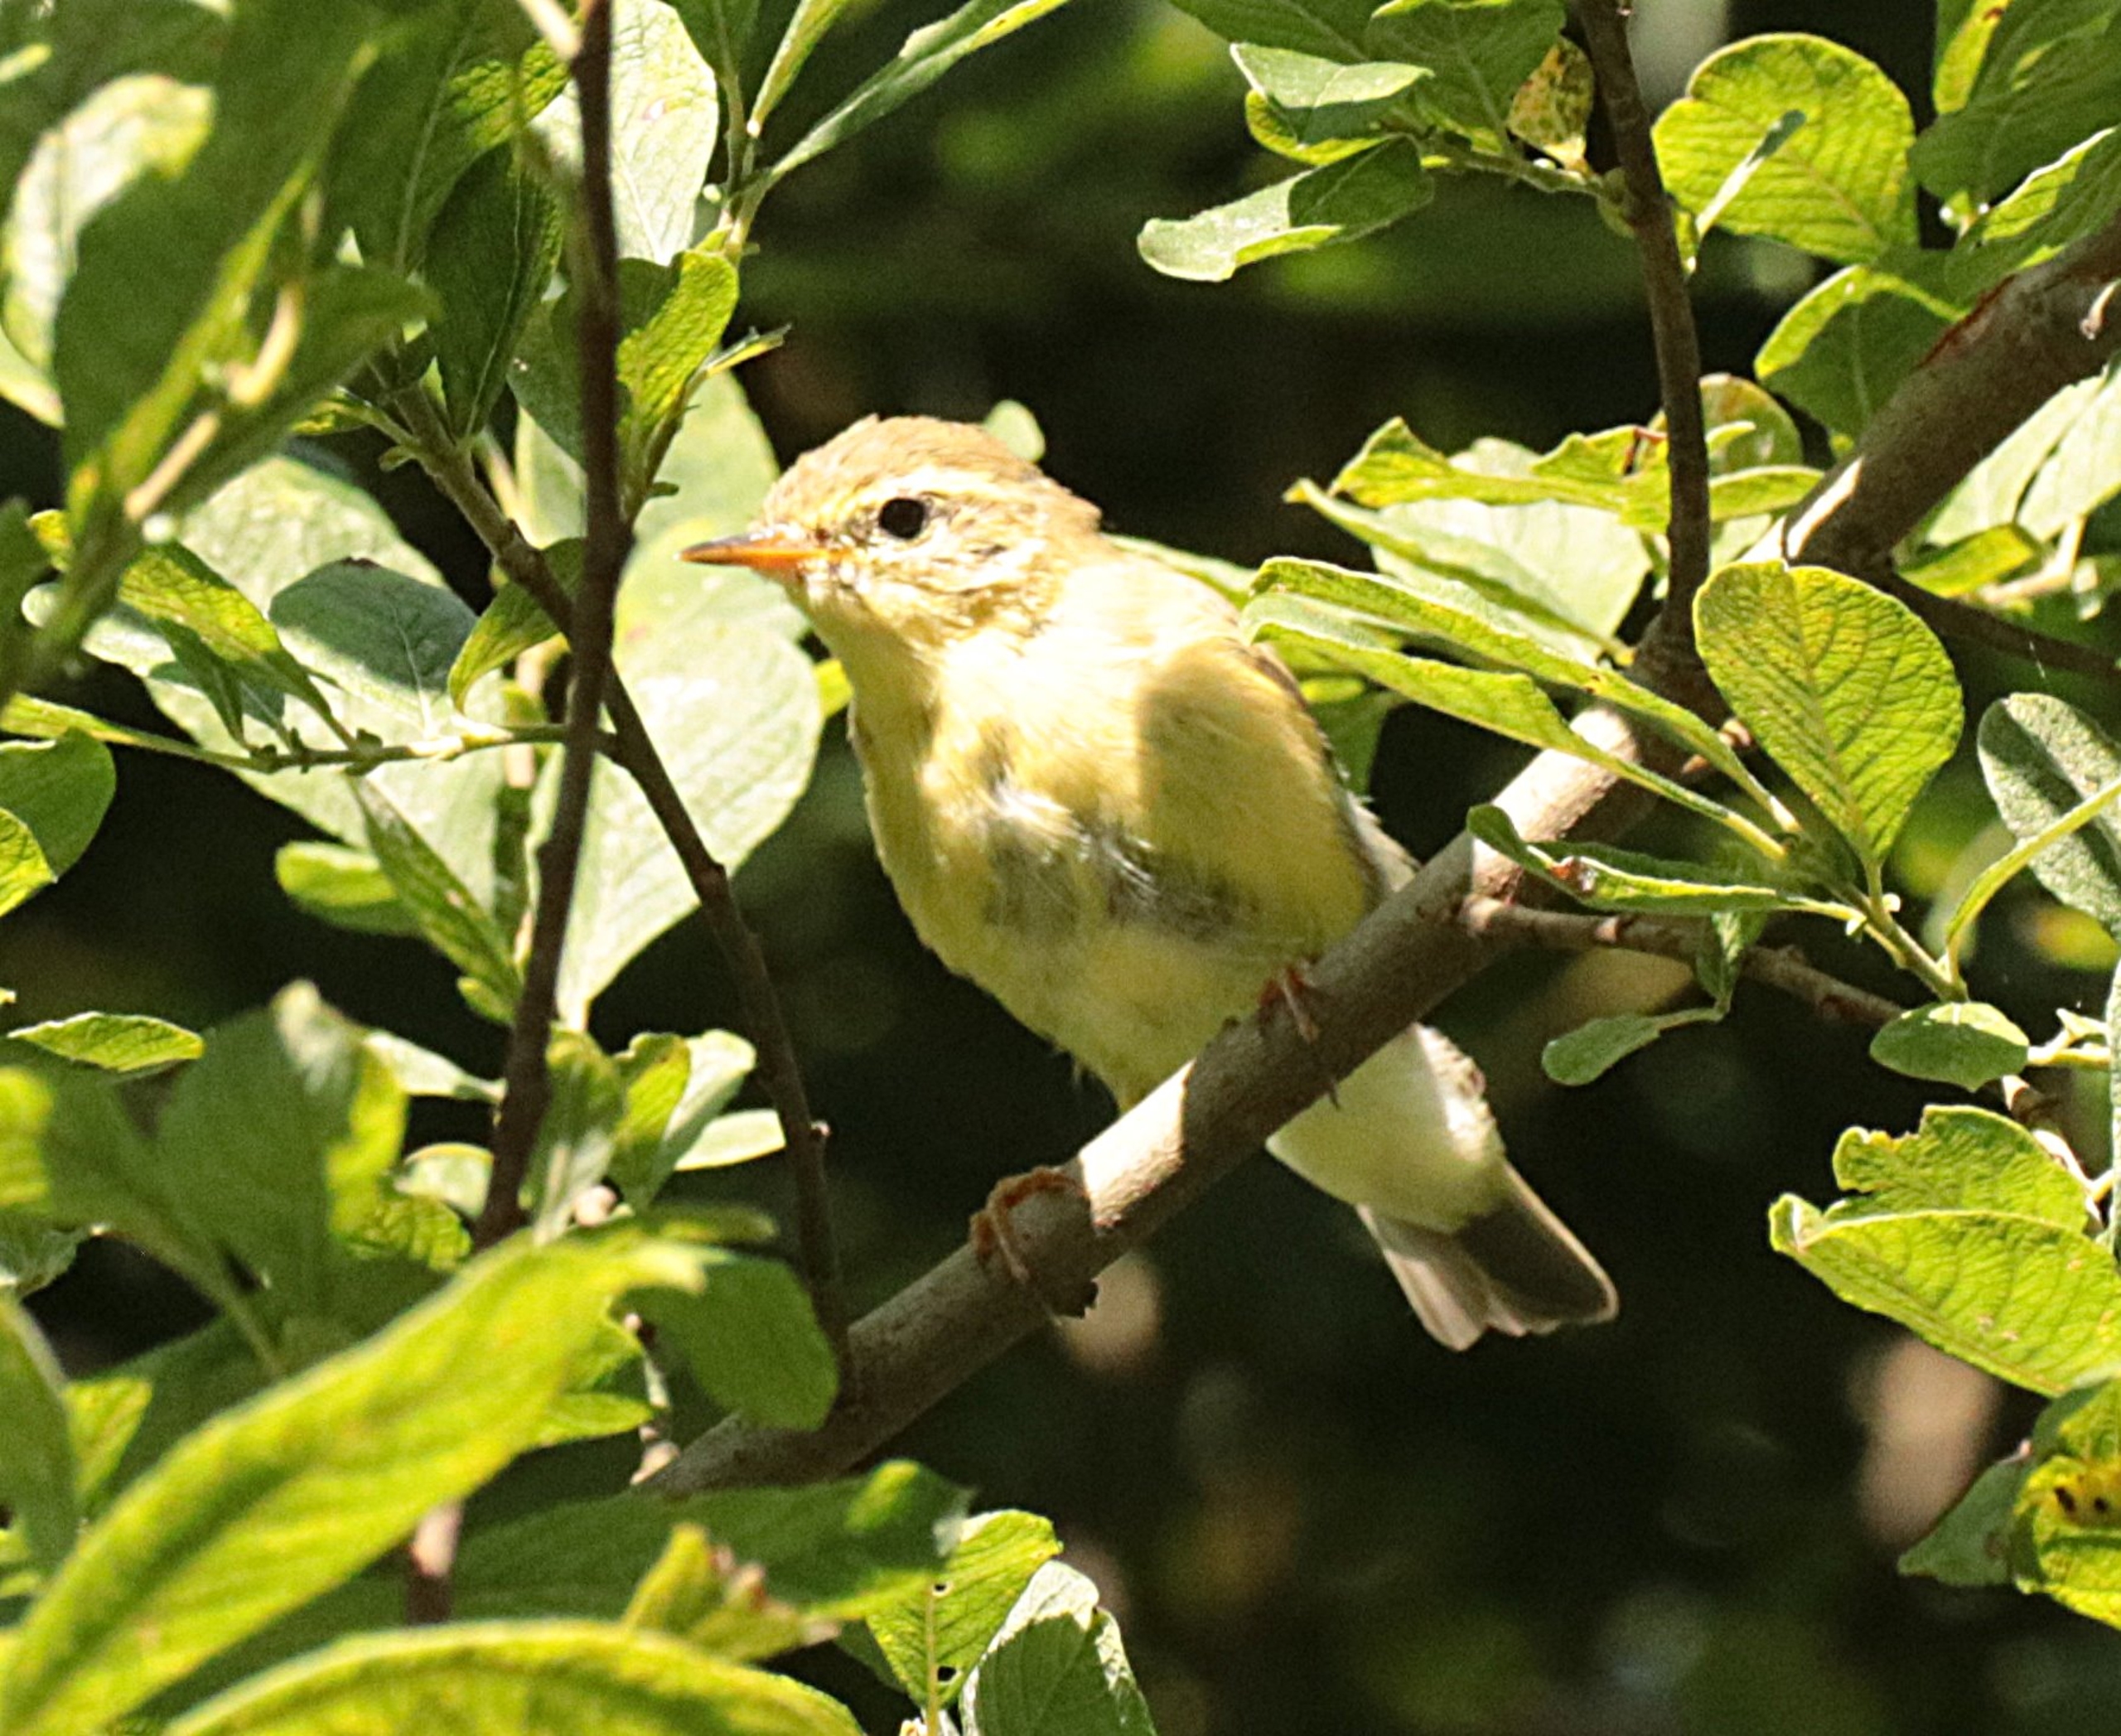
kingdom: Animalia
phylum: Chordata
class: Aves
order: Passeriformes
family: Phylloscopidae
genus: Phylloscopus
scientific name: Phylloscopus trochilus
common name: Løvsanger
